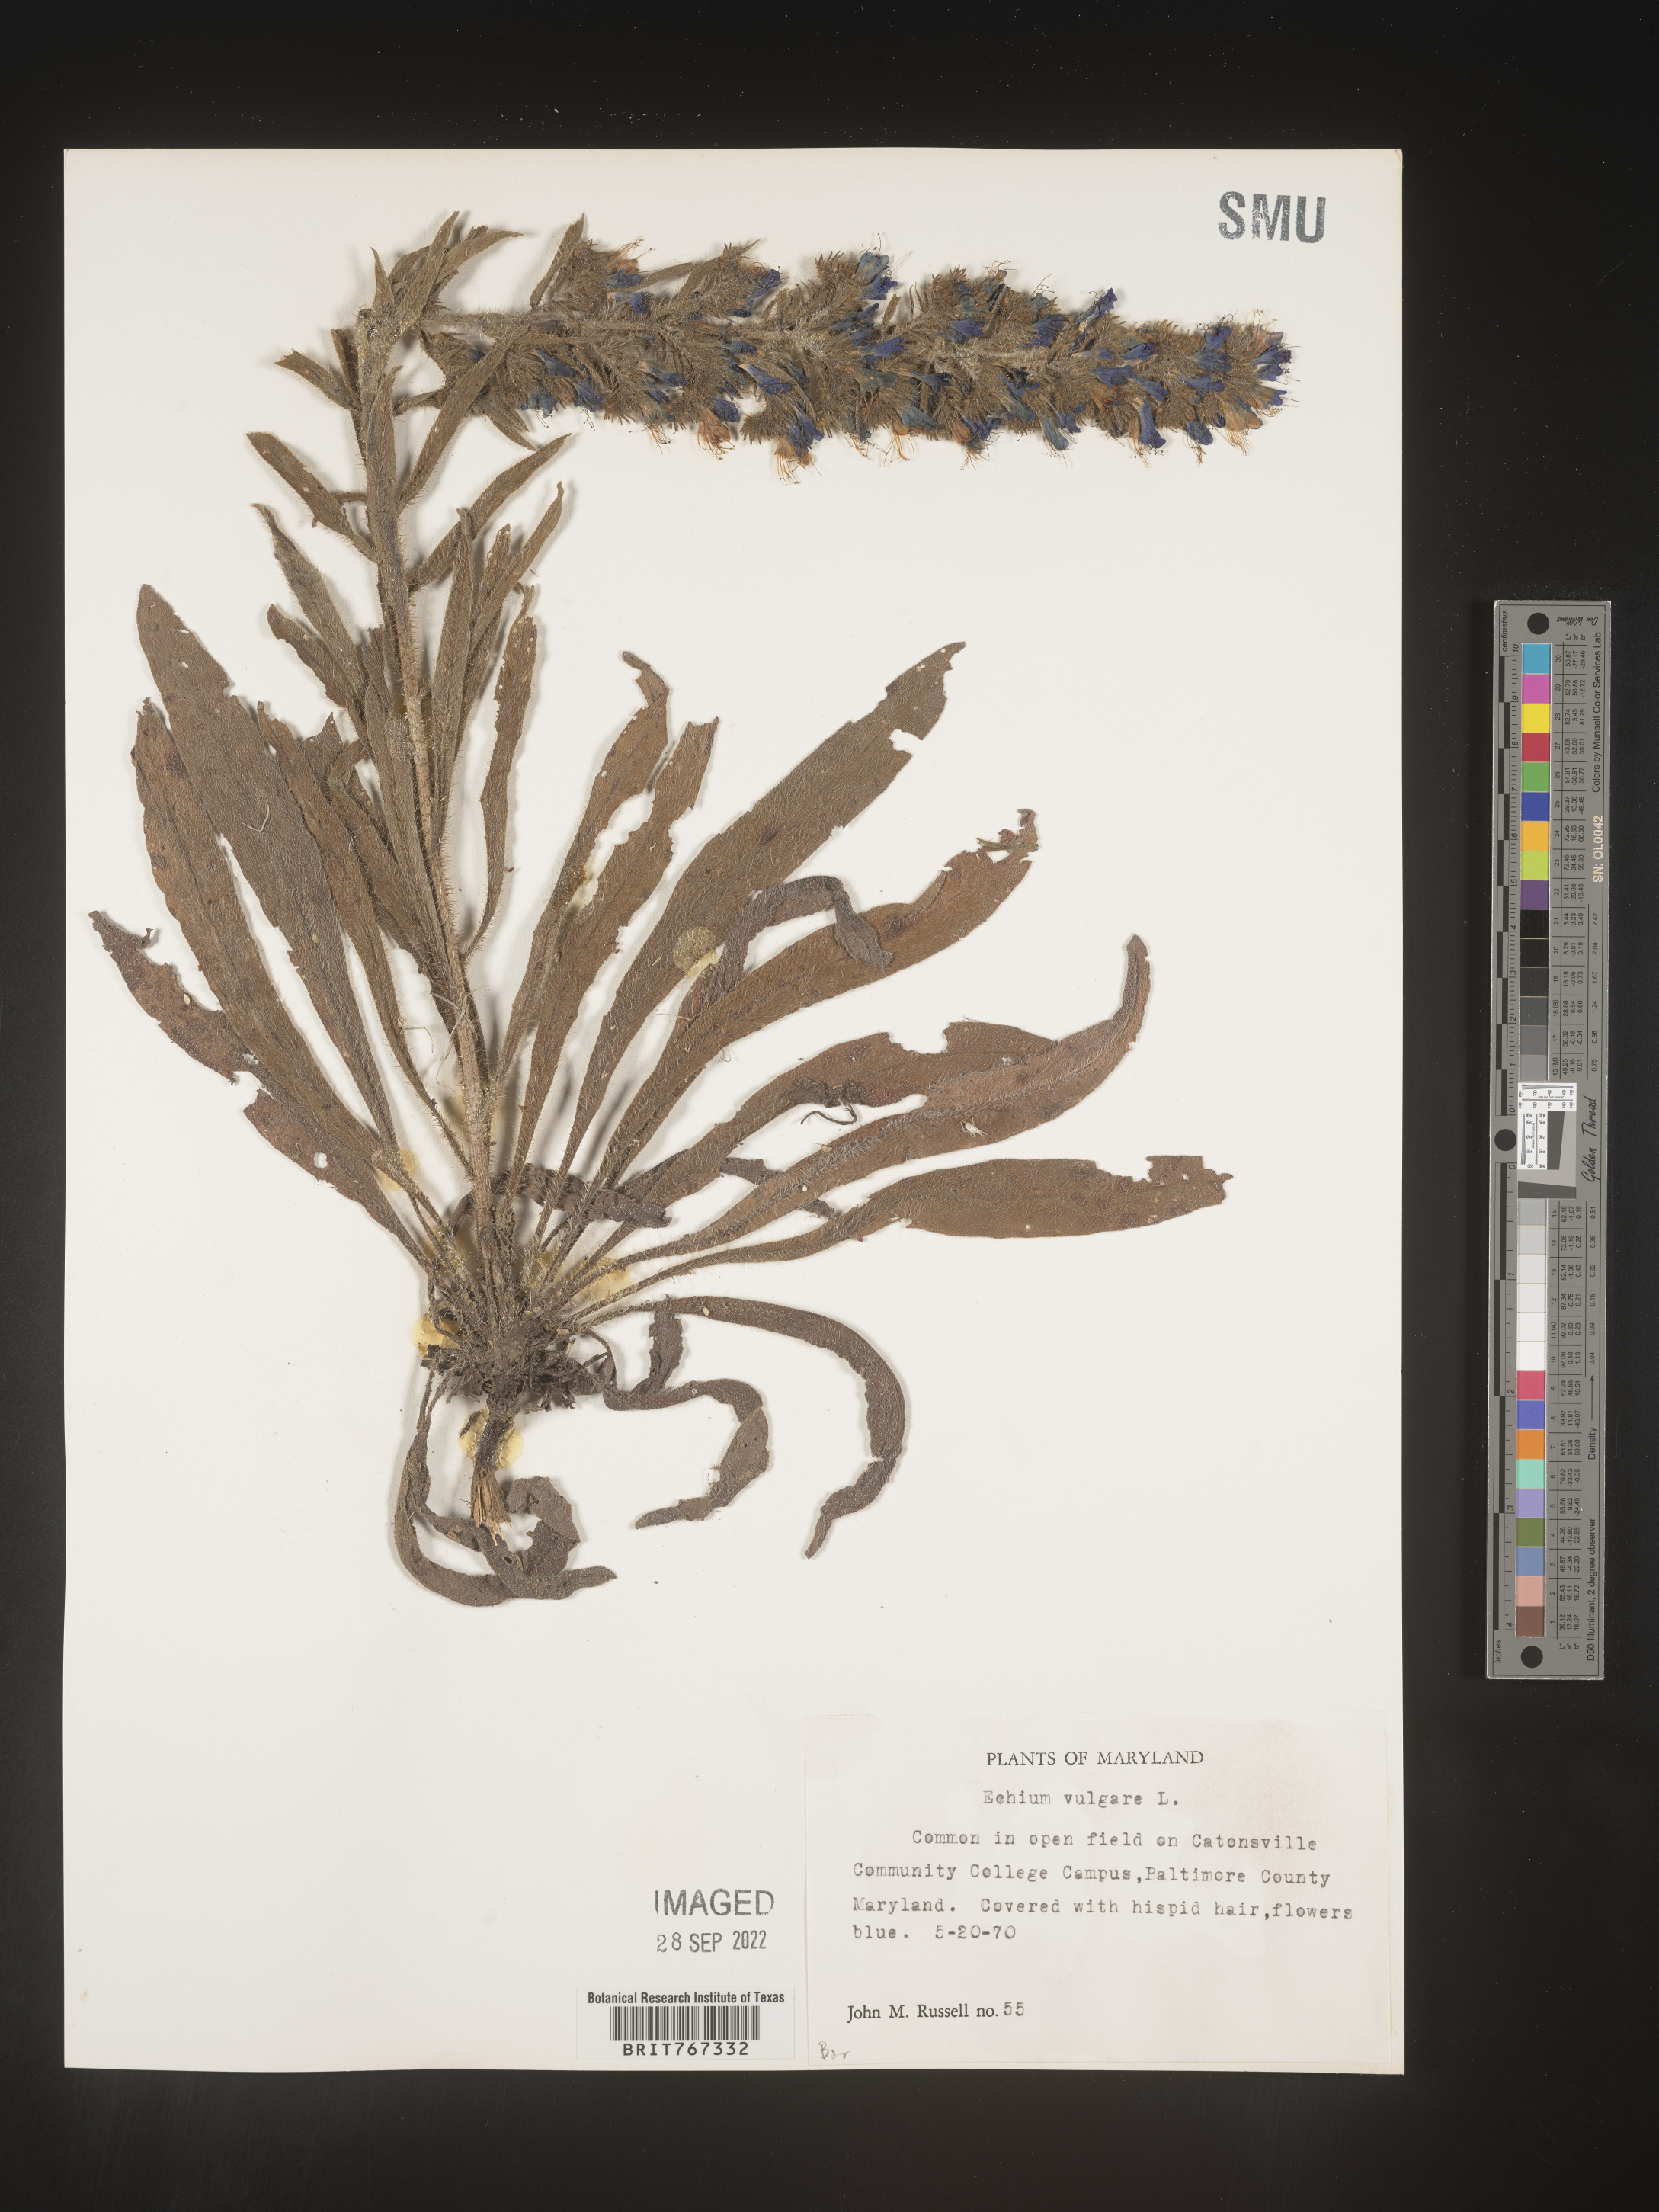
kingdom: Plantae
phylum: Tracheophyta
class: Magnoliopsida
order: Boraginales
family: Boraginaceae
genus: Echium
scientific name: Echium
